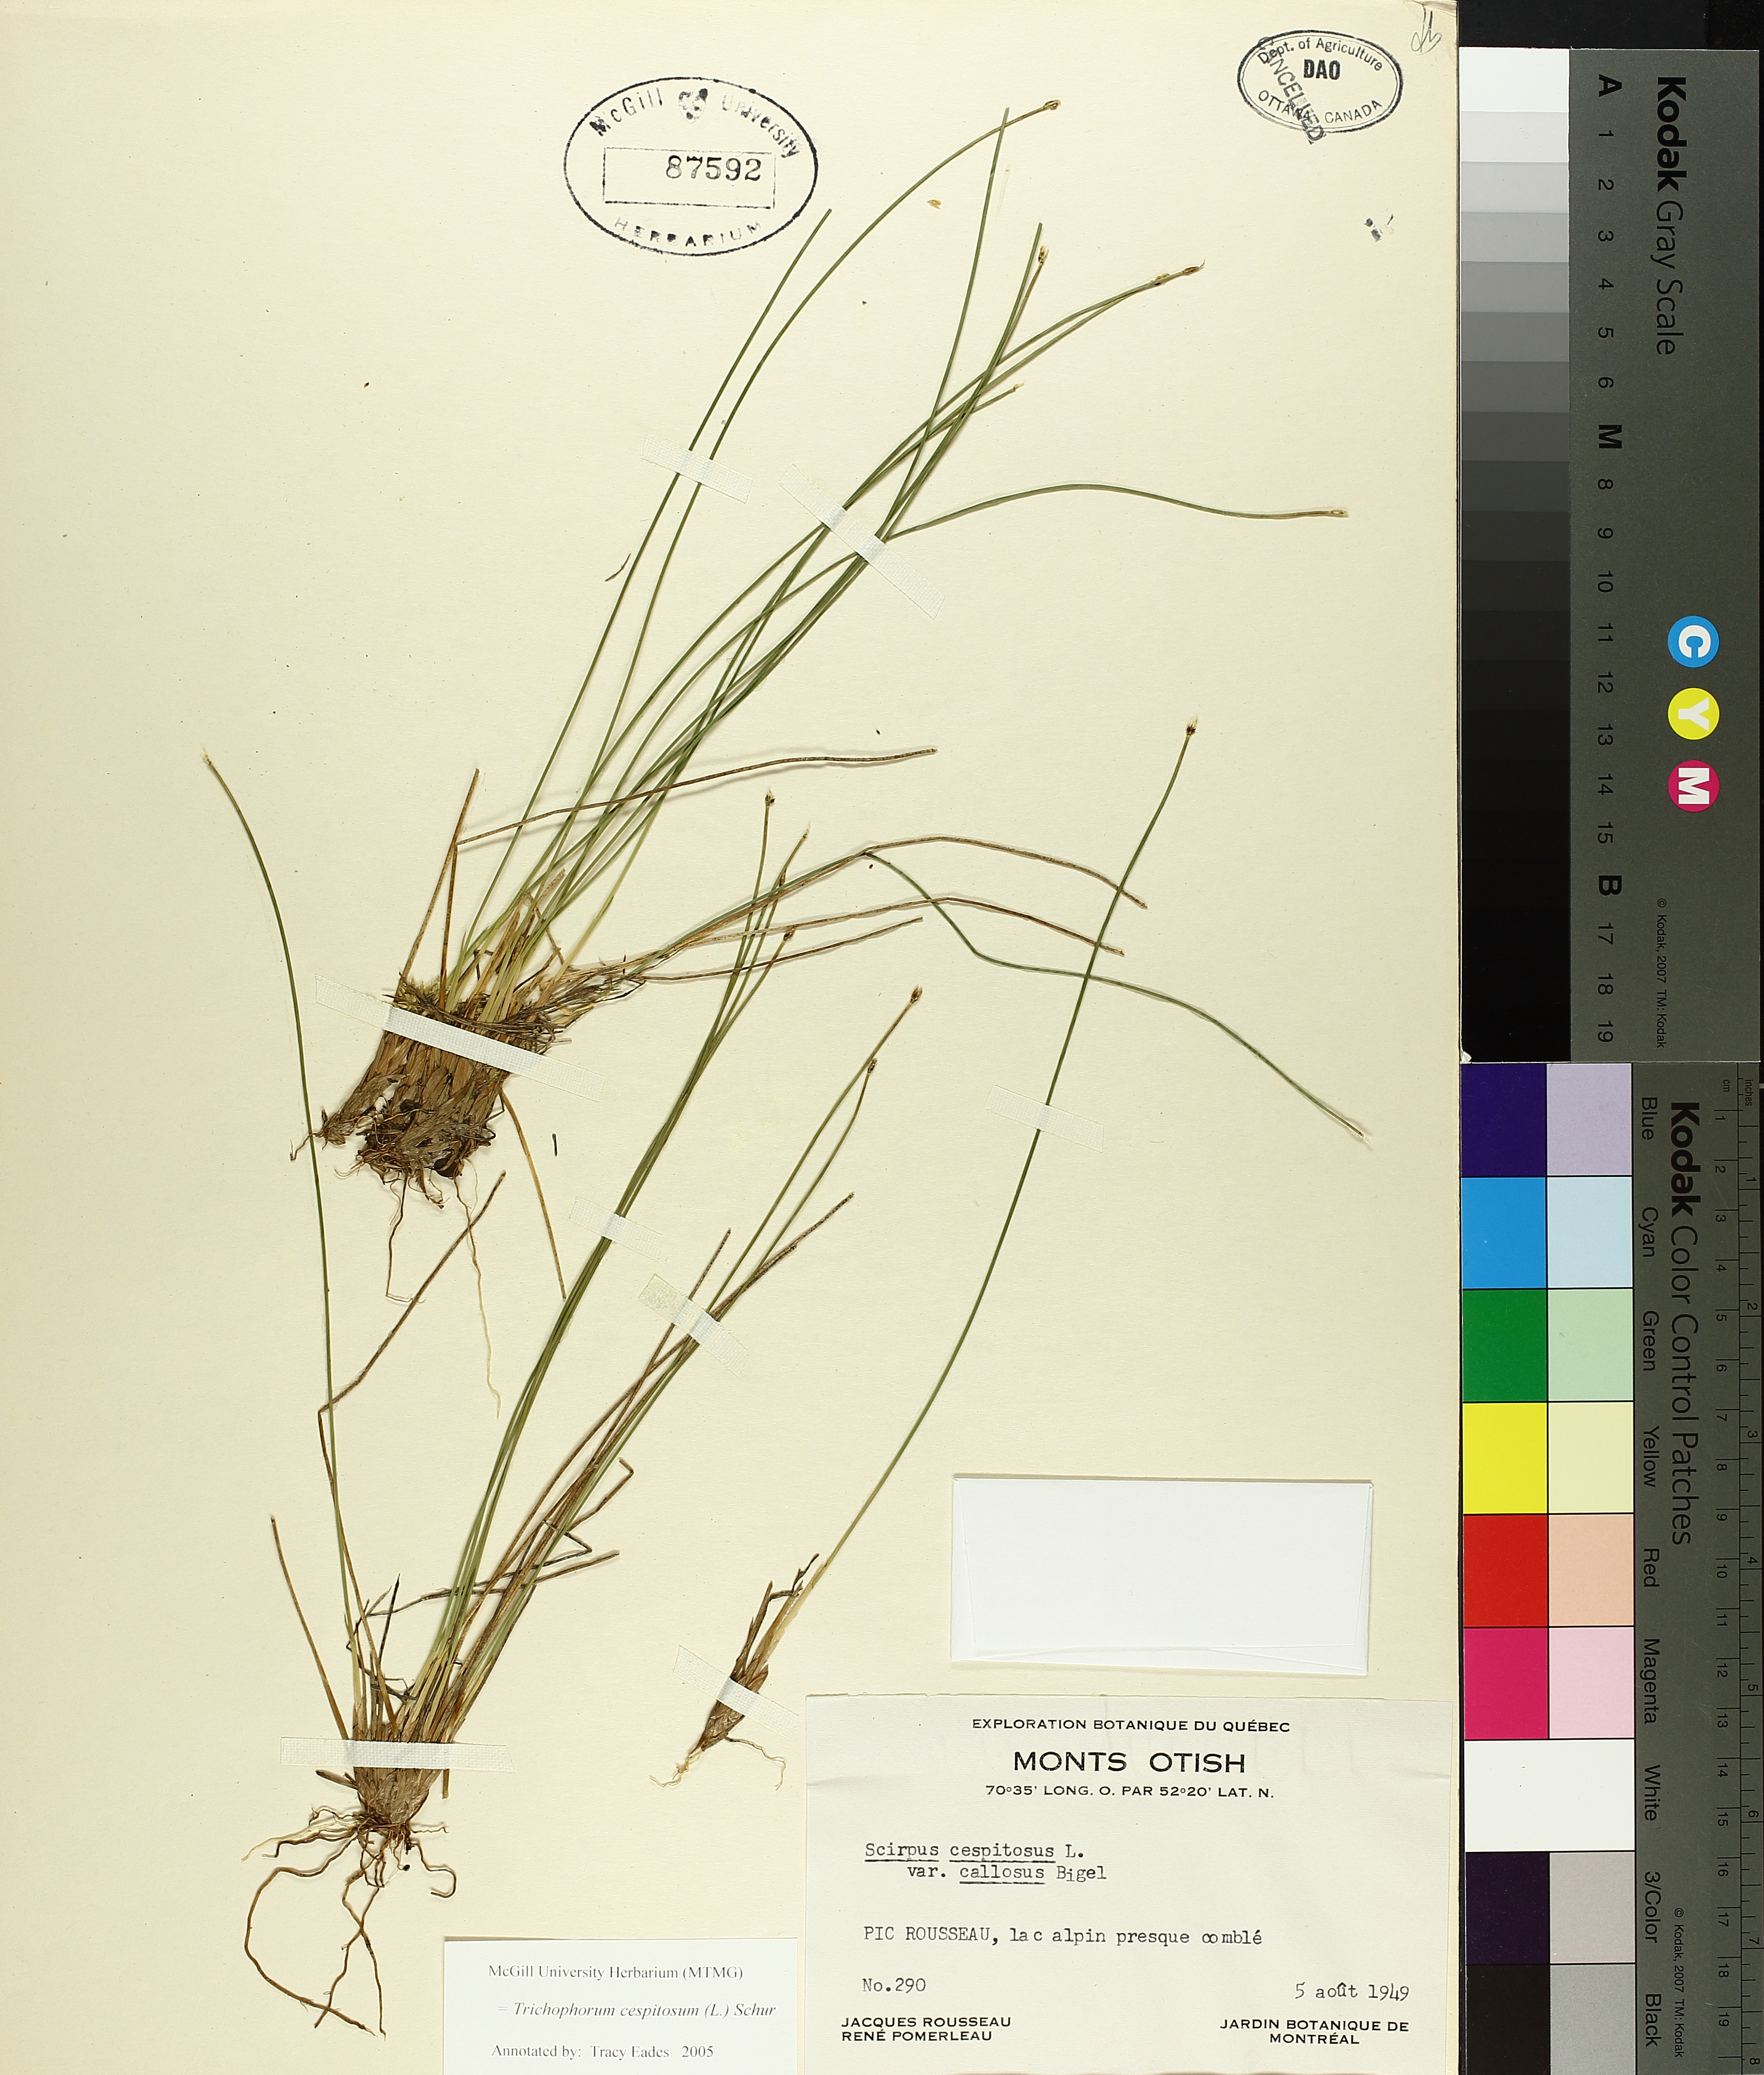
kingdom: Plantae
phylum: Tracheophyta
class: Liliopsida
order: Poales
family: Cyperaceae
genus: Trichophorum
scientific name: Trichophorum cespitosum
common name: Cespitose bulrush
